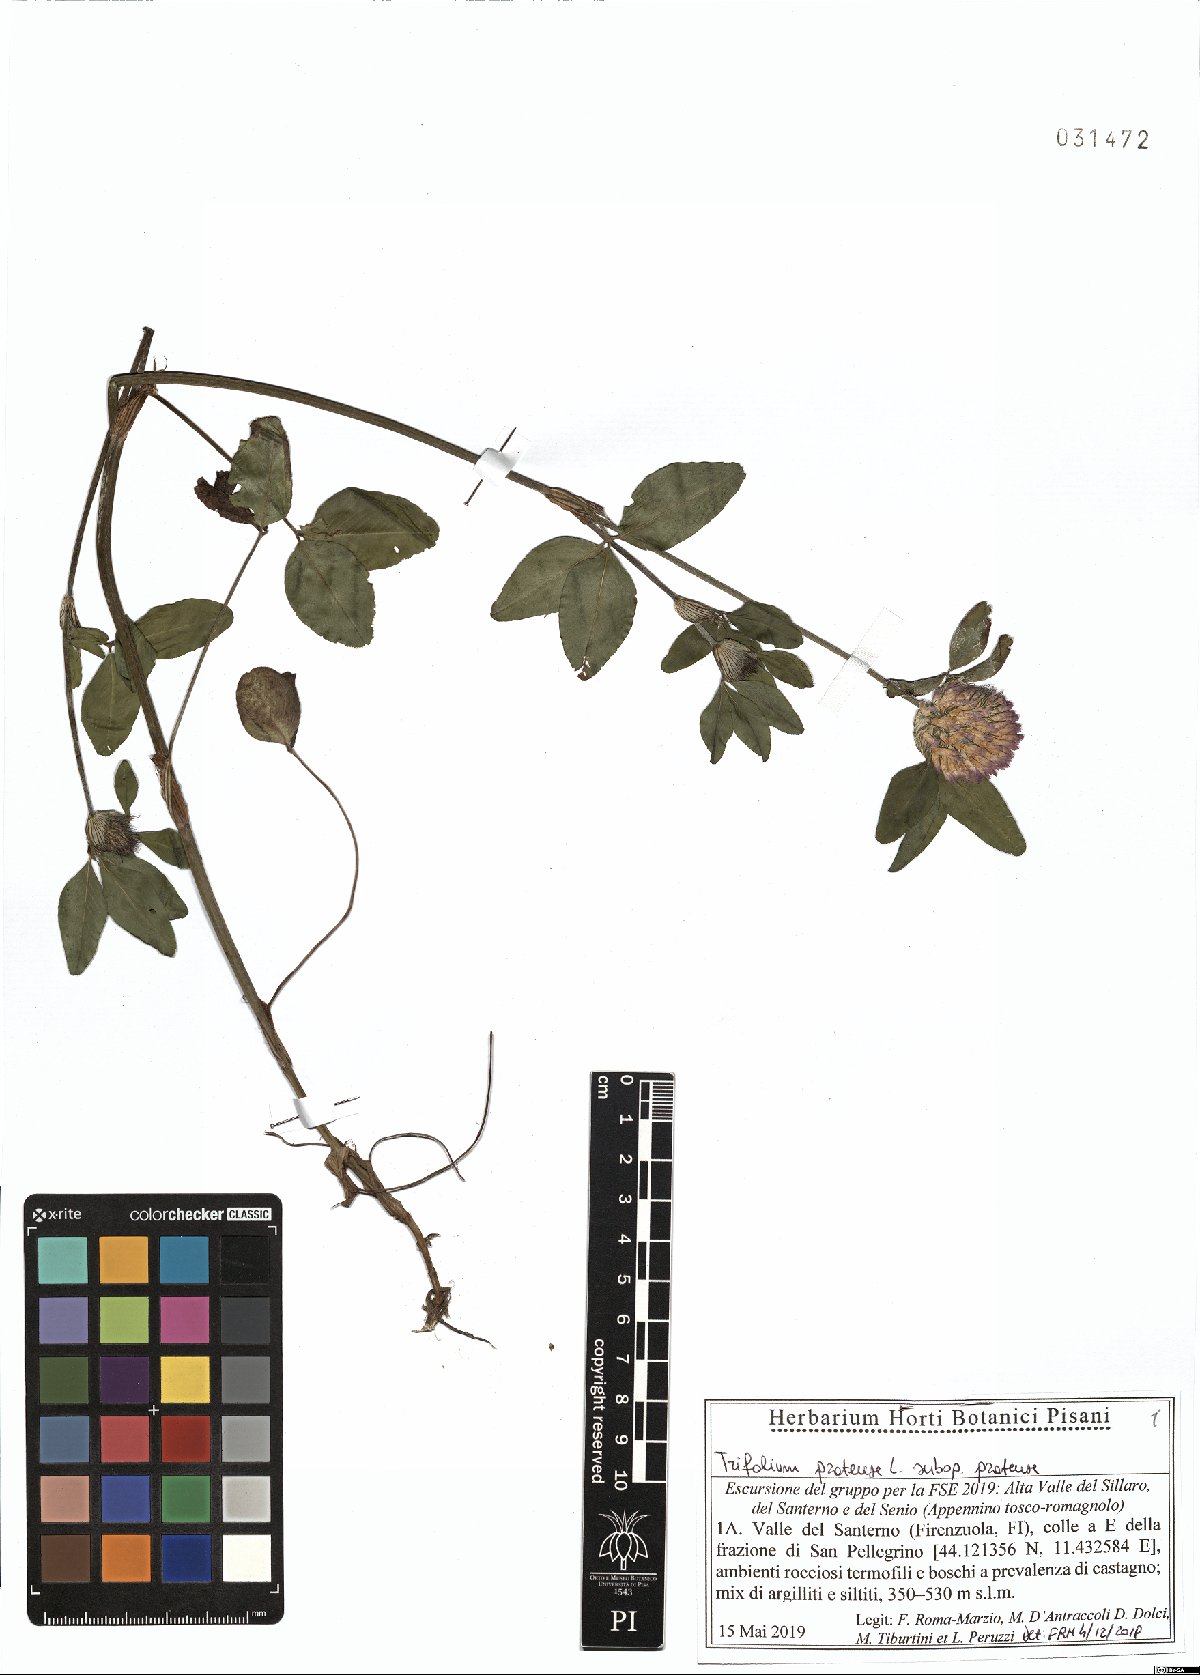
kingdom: Plantae
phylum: Tracheophyta
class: Magnoliopsida
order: Fabales
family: Fabaceae
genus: Trifolium
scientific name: Trifolium pratense
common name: Red clover
